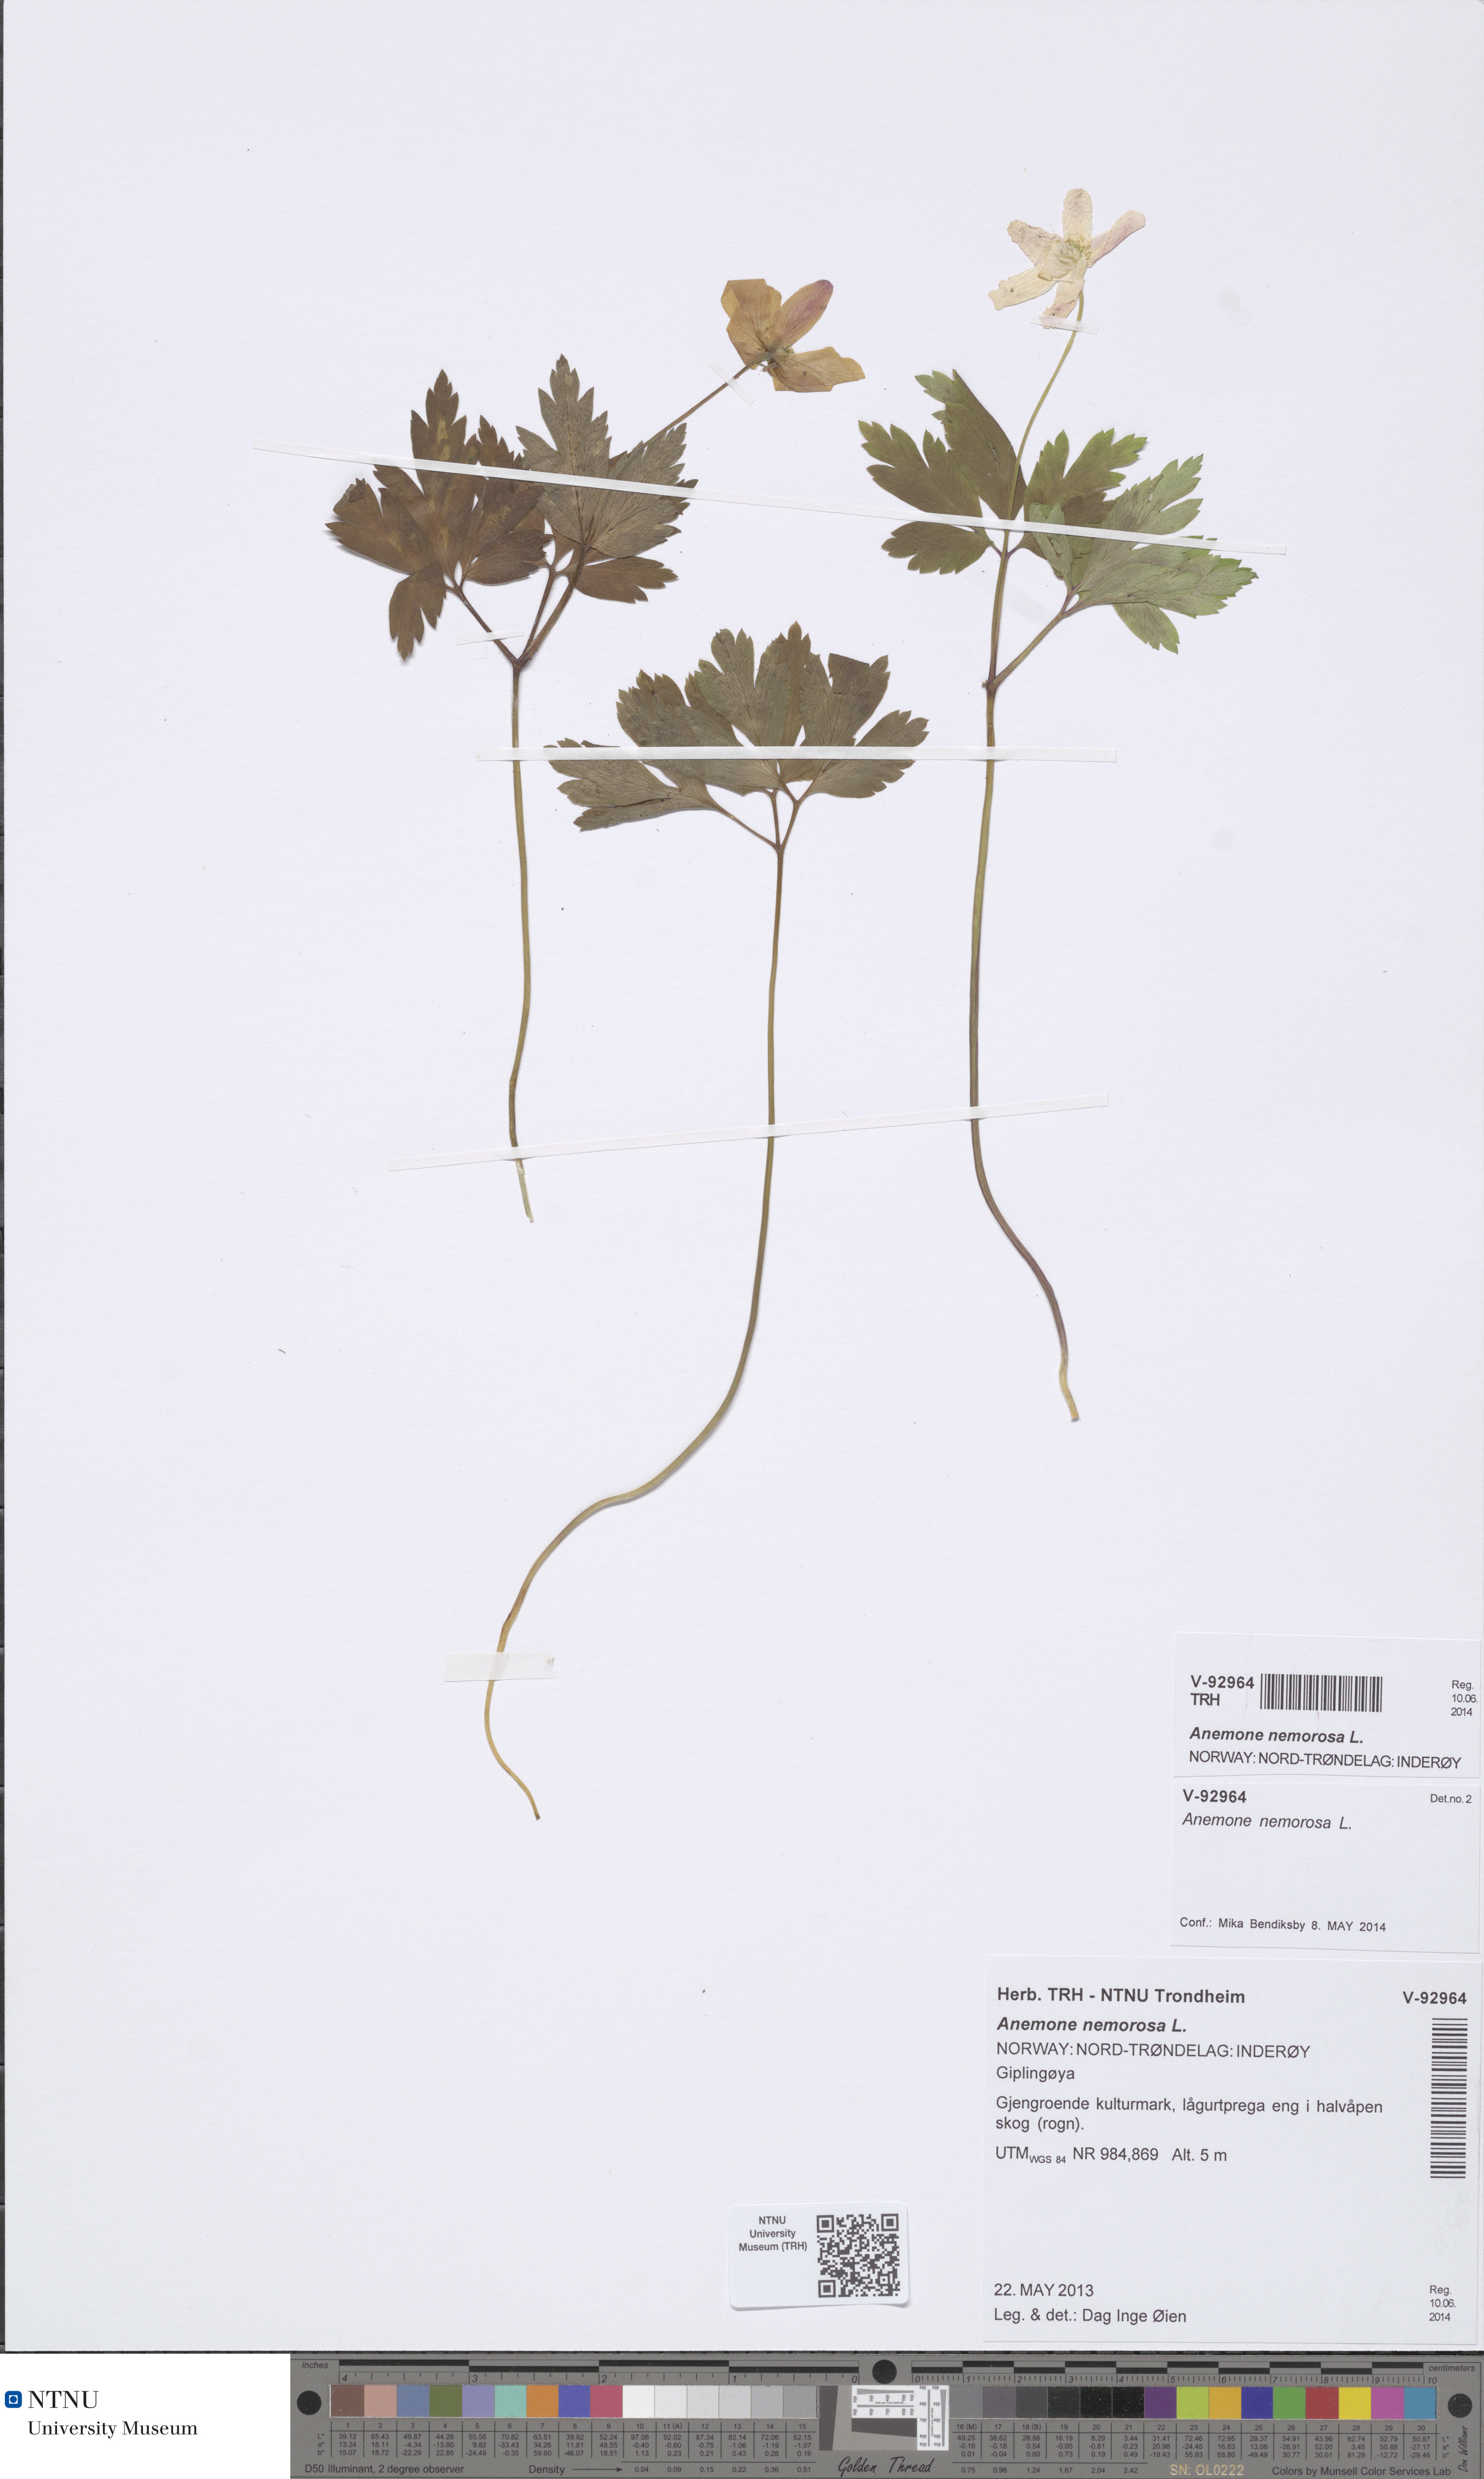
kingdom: Plantae
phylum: Tracheophyta
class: Magnoliopsida
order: Ranunculales
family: Ranunculaceae
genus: Anemone
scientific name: Anemone nemorosa
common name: Wood anemone
